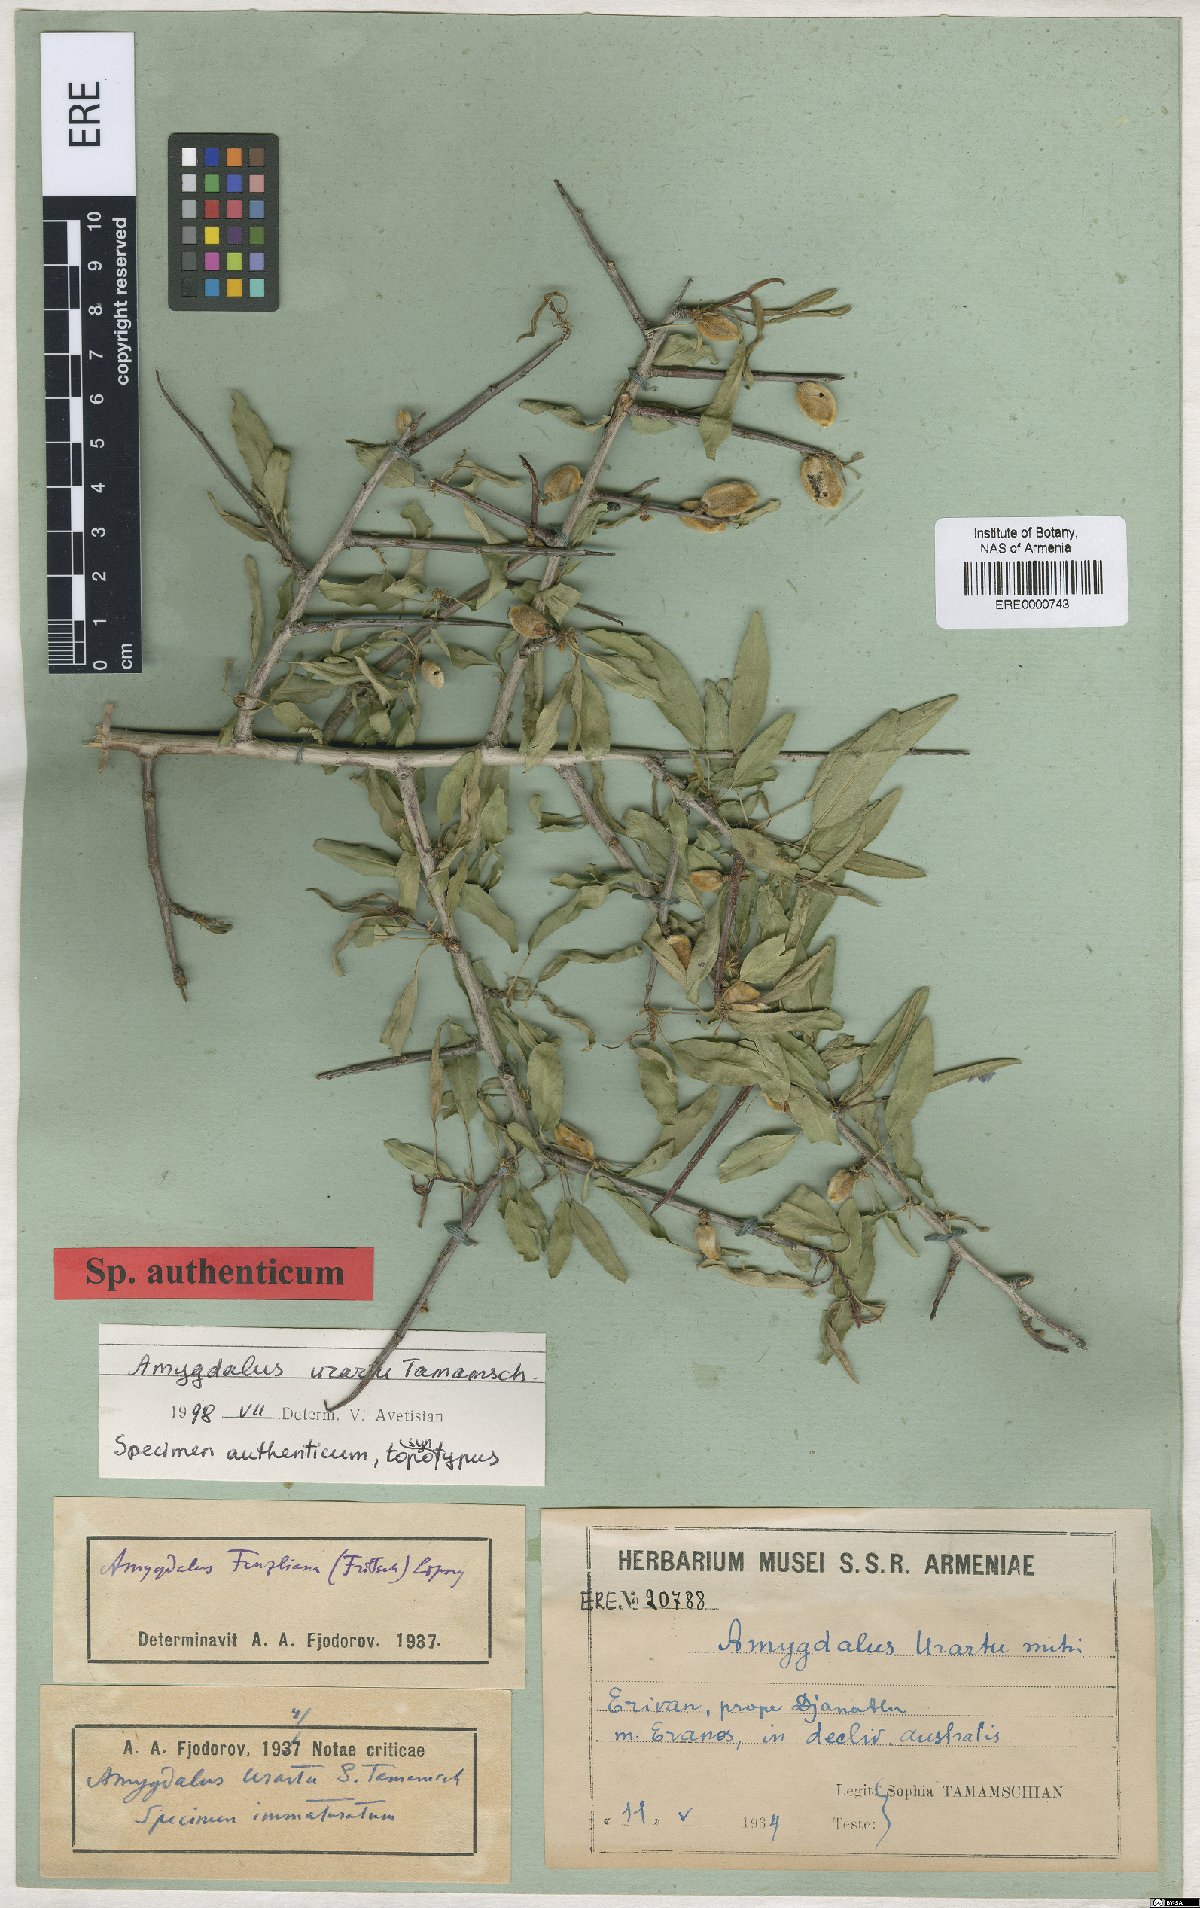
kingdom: Plantae
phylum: Tracheophyta
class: Magnoliopsida
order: Rosales
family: Rosaceae
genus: Prunus
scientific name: Prunus urartu
